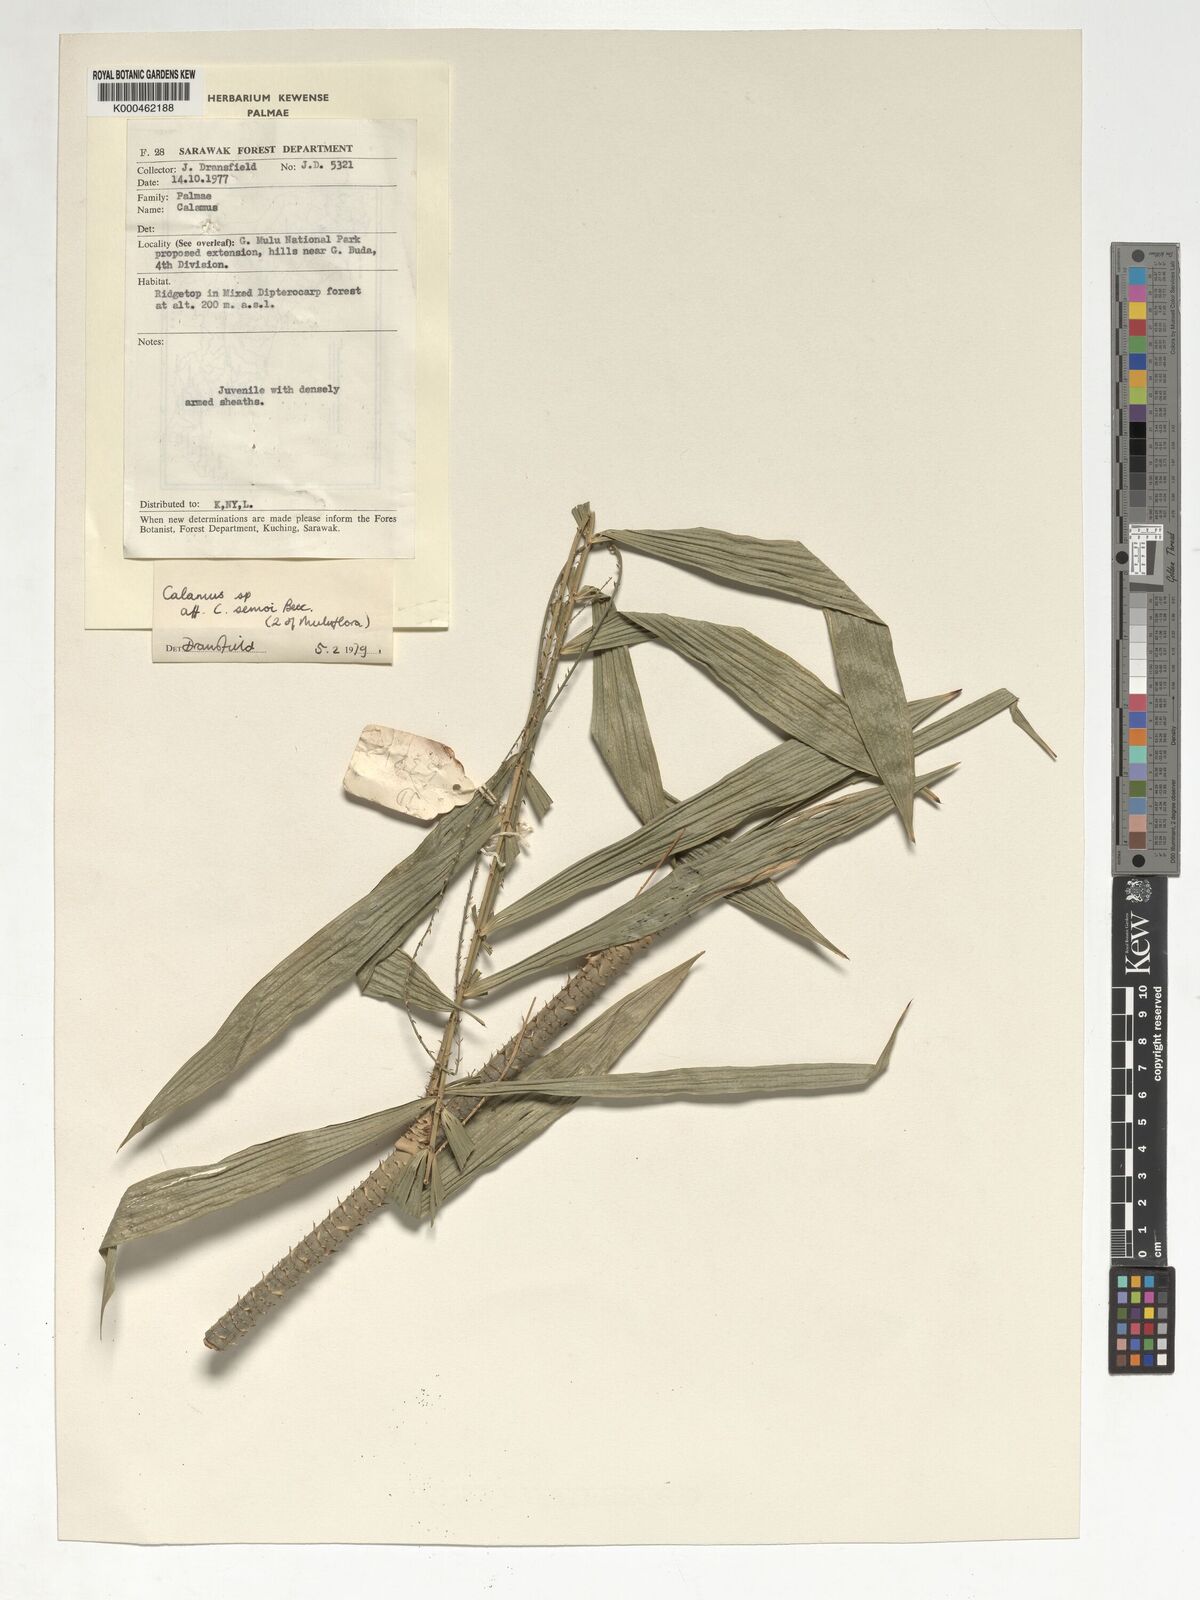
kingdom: Plantae
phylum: Tracheophyta
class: Liliopsida
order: Arecales
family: Arecaceae
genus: Calamus
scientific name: Calamus erioacanthus
